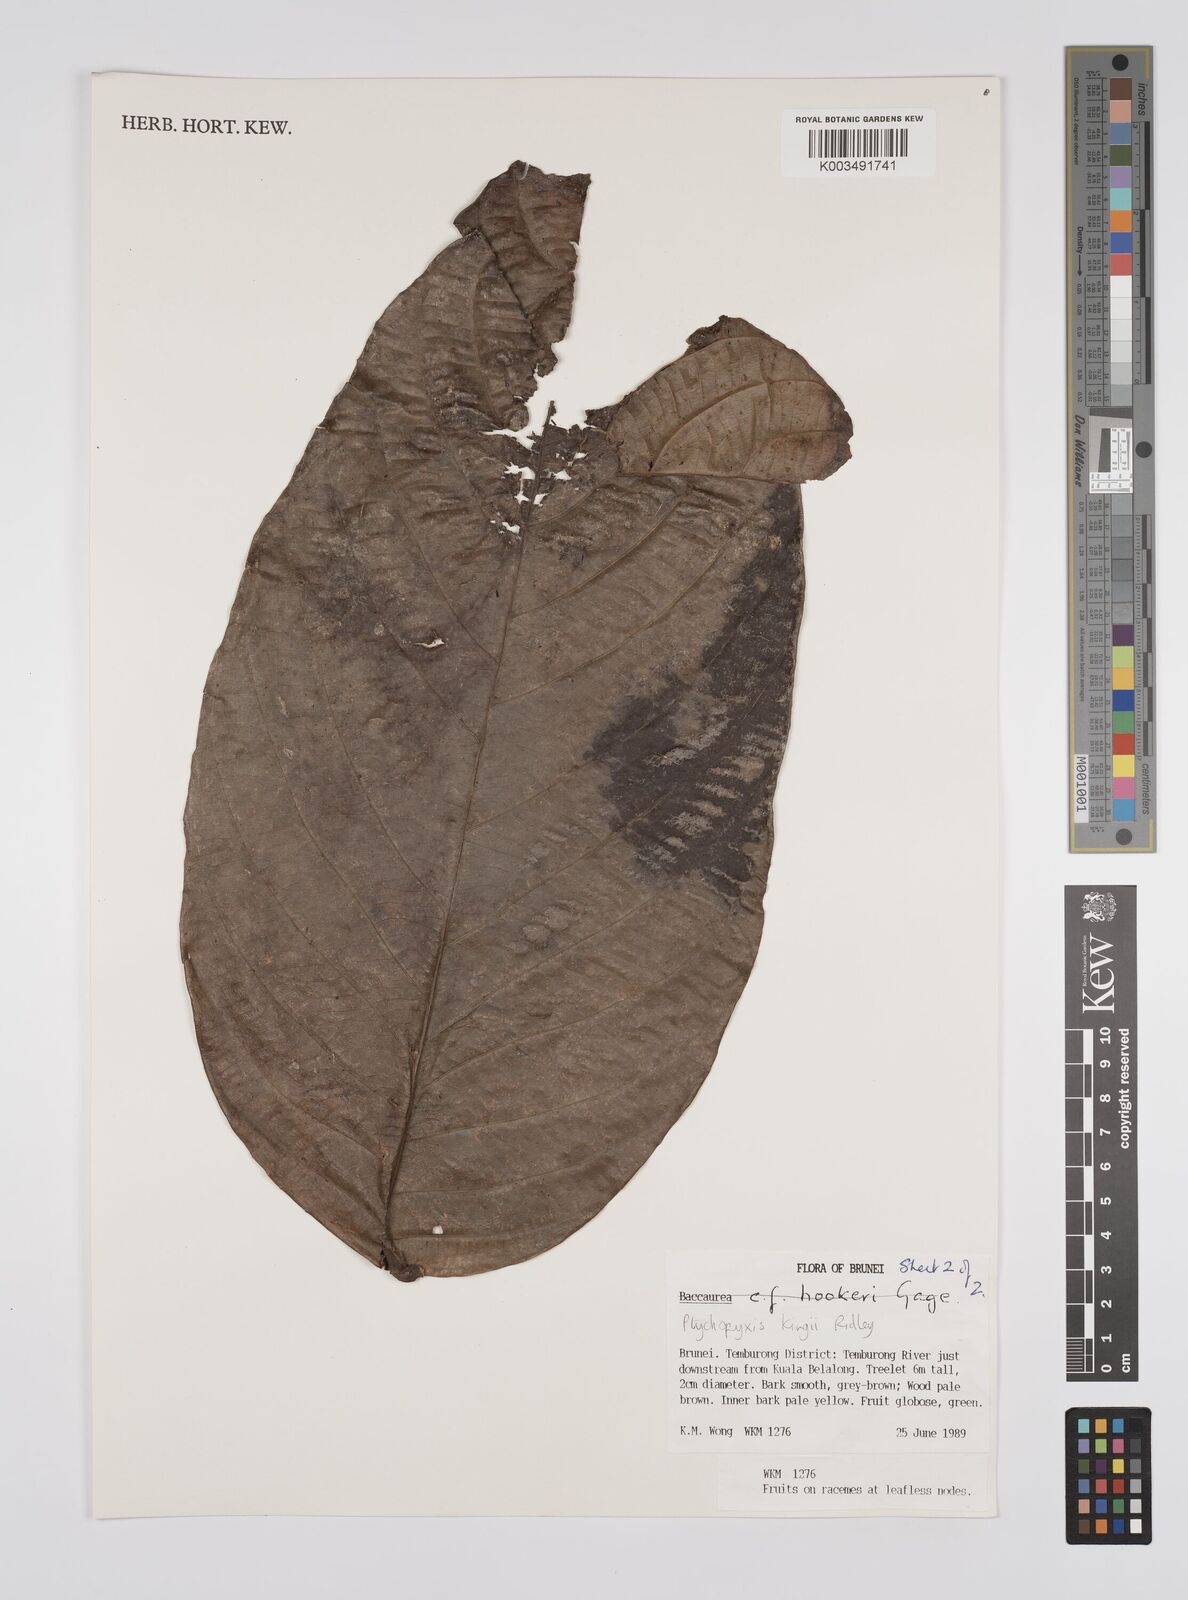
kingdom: Plantae
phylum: Tracheophyta
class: Magnoliopsida
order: Malpighiales
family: Euphorbiaceae
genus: Ptychopyxis
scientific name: Ptychopyxis kingii
